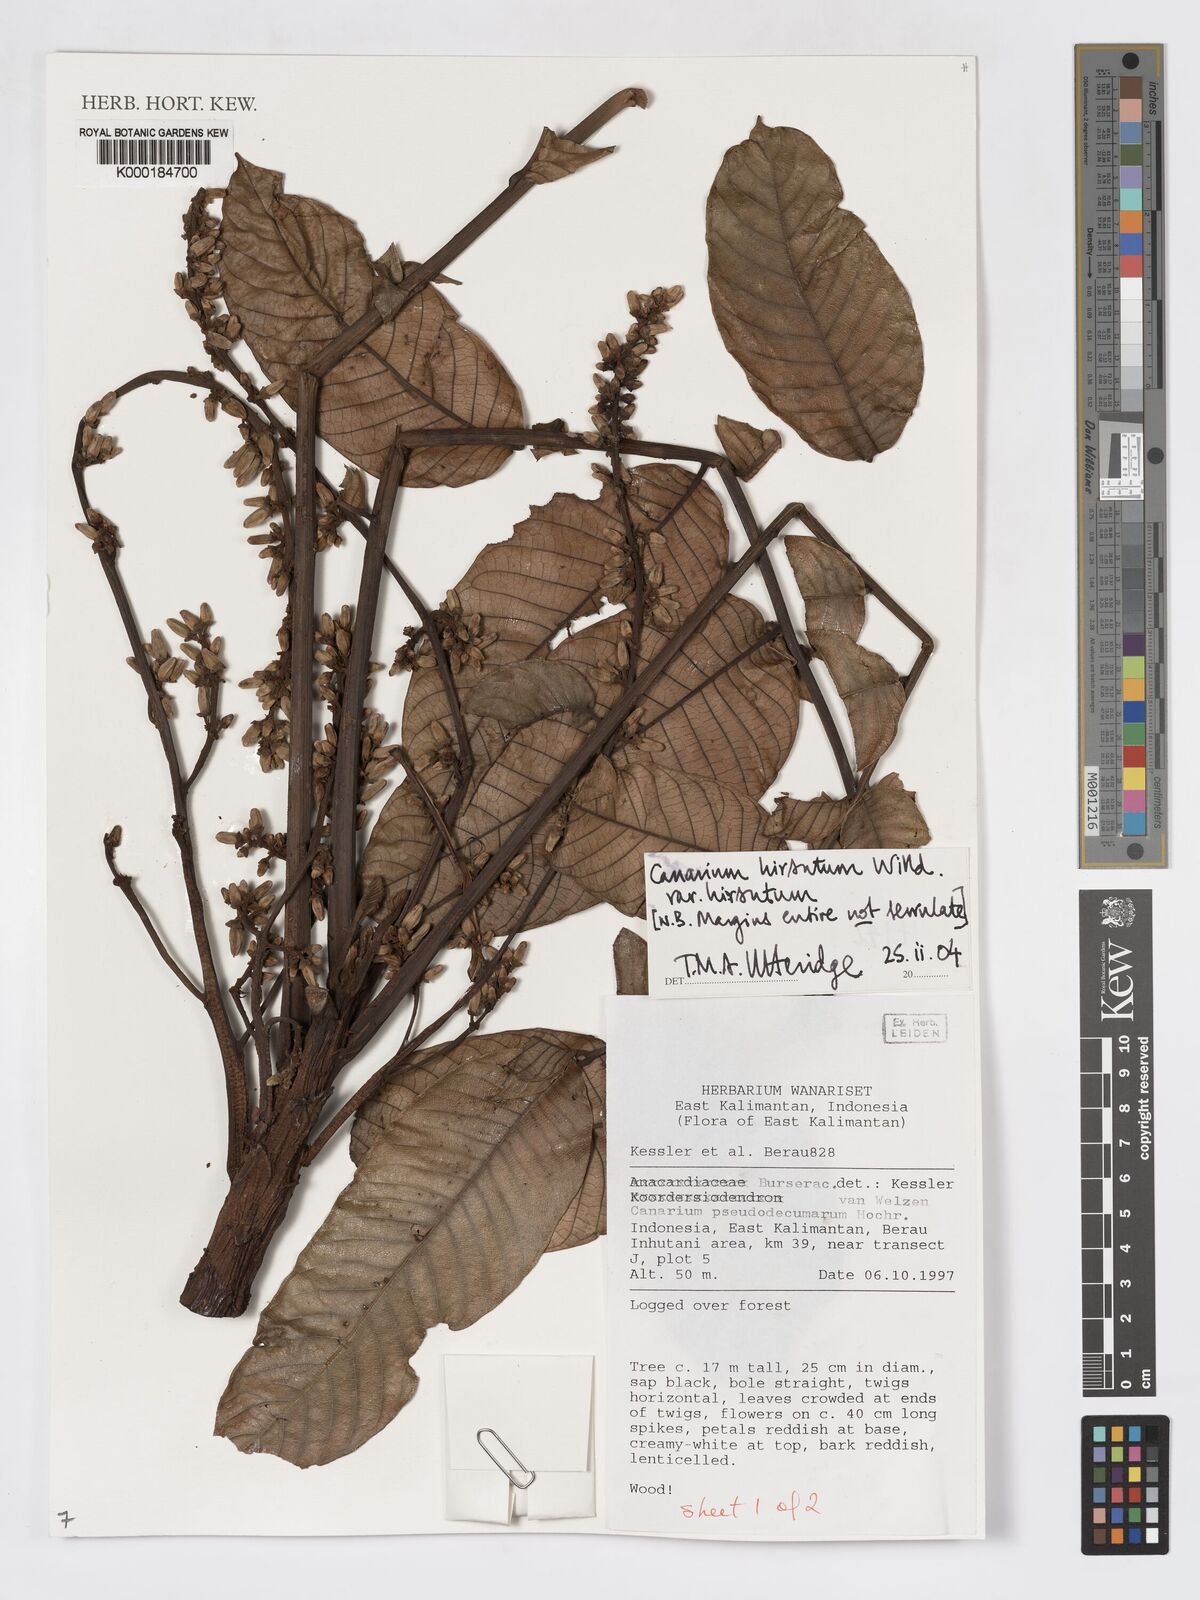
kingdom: Plantae
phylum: Tracheophyta
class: Magnoliopsida
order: Sapindales
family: Burseraceae
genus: Canarium
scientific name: Canarium hirsutum
